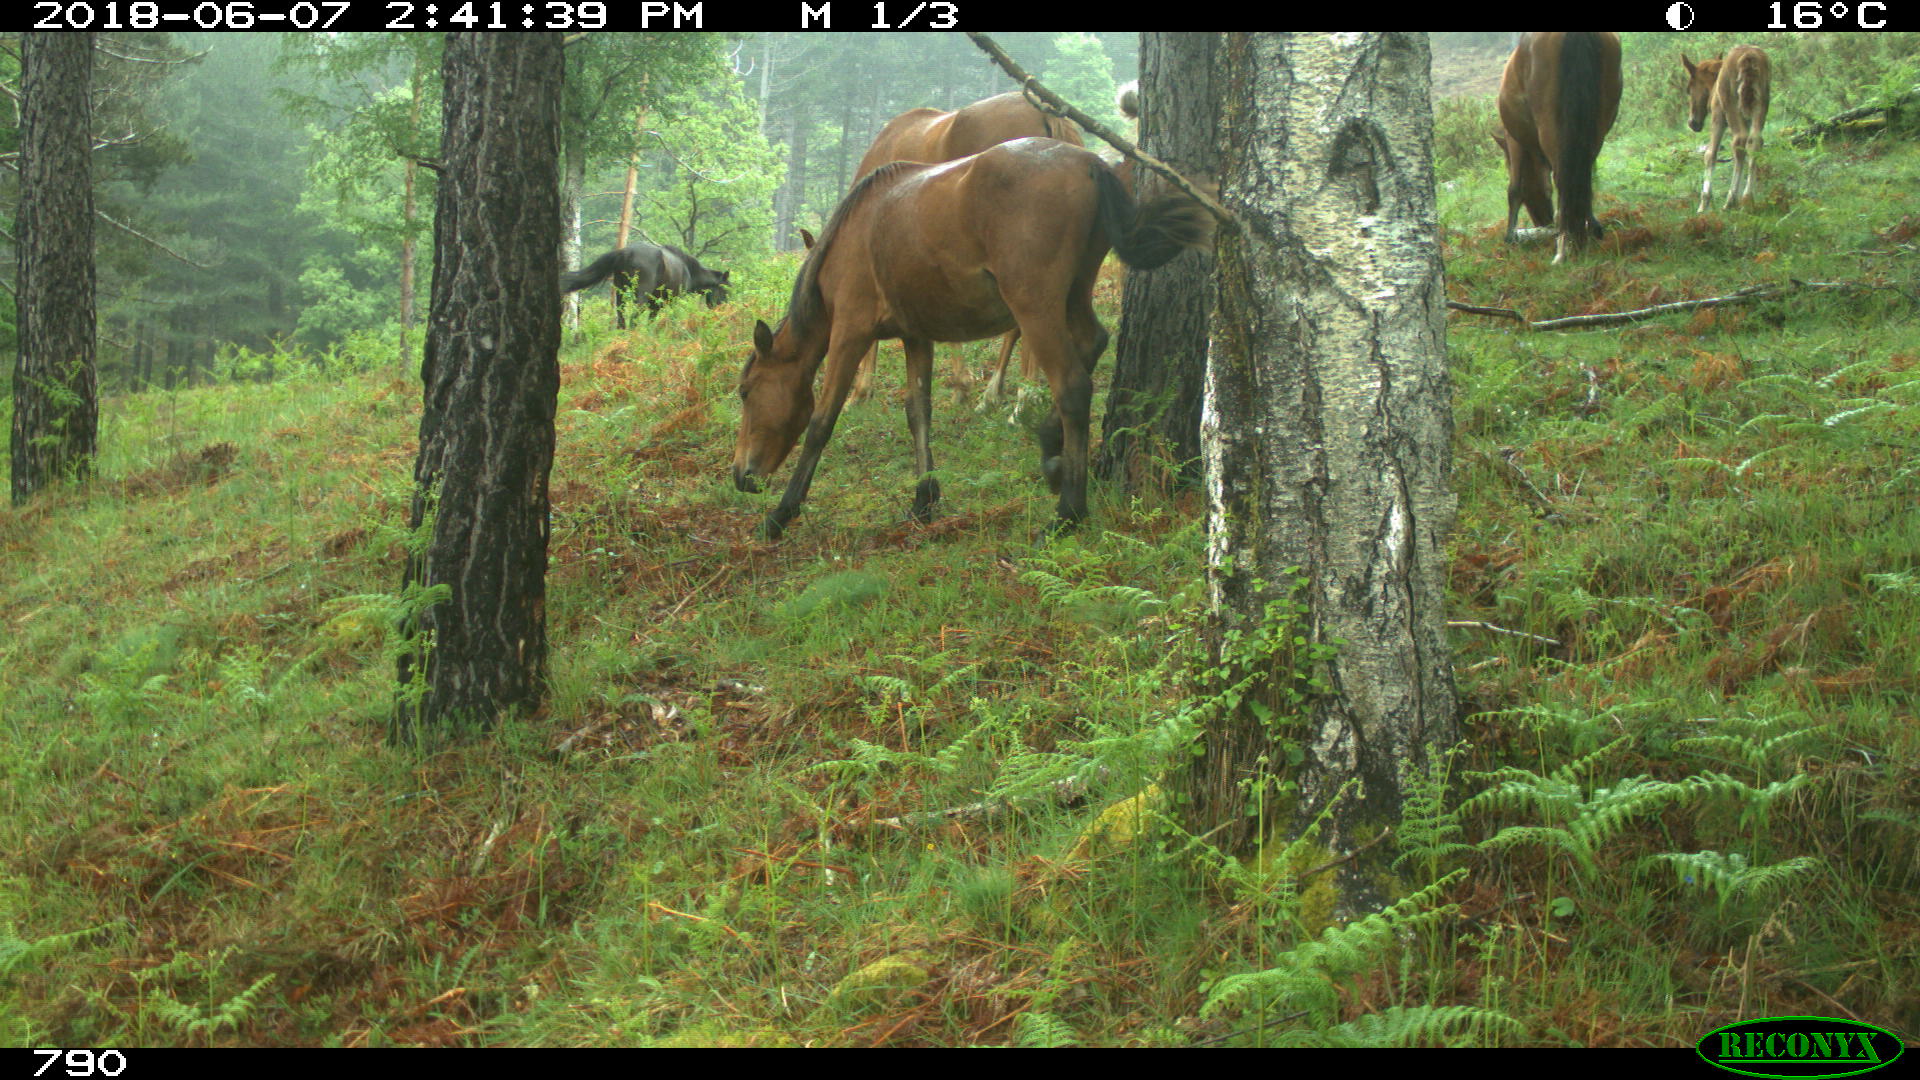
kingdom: Animalia
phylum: Chordata
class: Mammalia
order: Perissodactyla
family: Equidae
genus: Equus
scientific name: Equus caballus
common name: Horse
